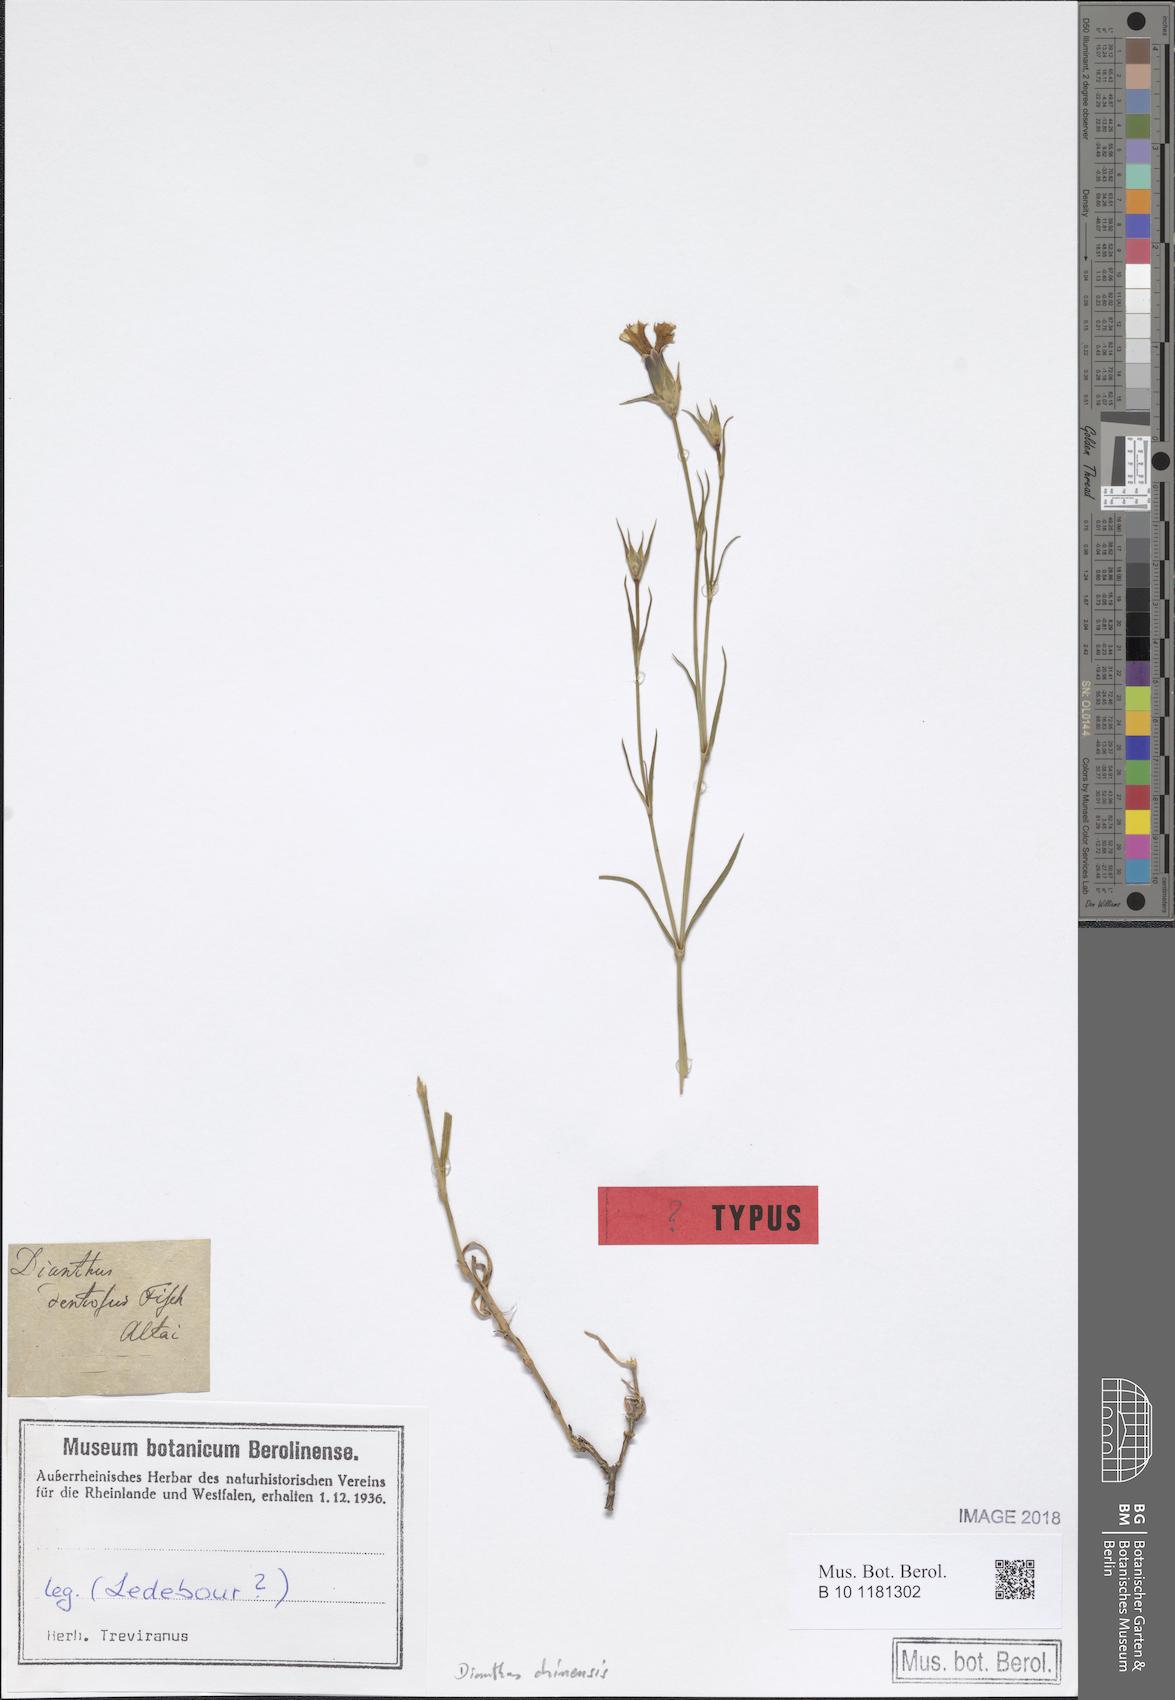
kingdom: Plantae
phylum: Tracheophyta
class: Magnoliopsida
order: Caryophyllales
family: Caryophyllaceae
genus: Dianthus
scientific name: Dianthus chinensis
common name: Rainbow pink
